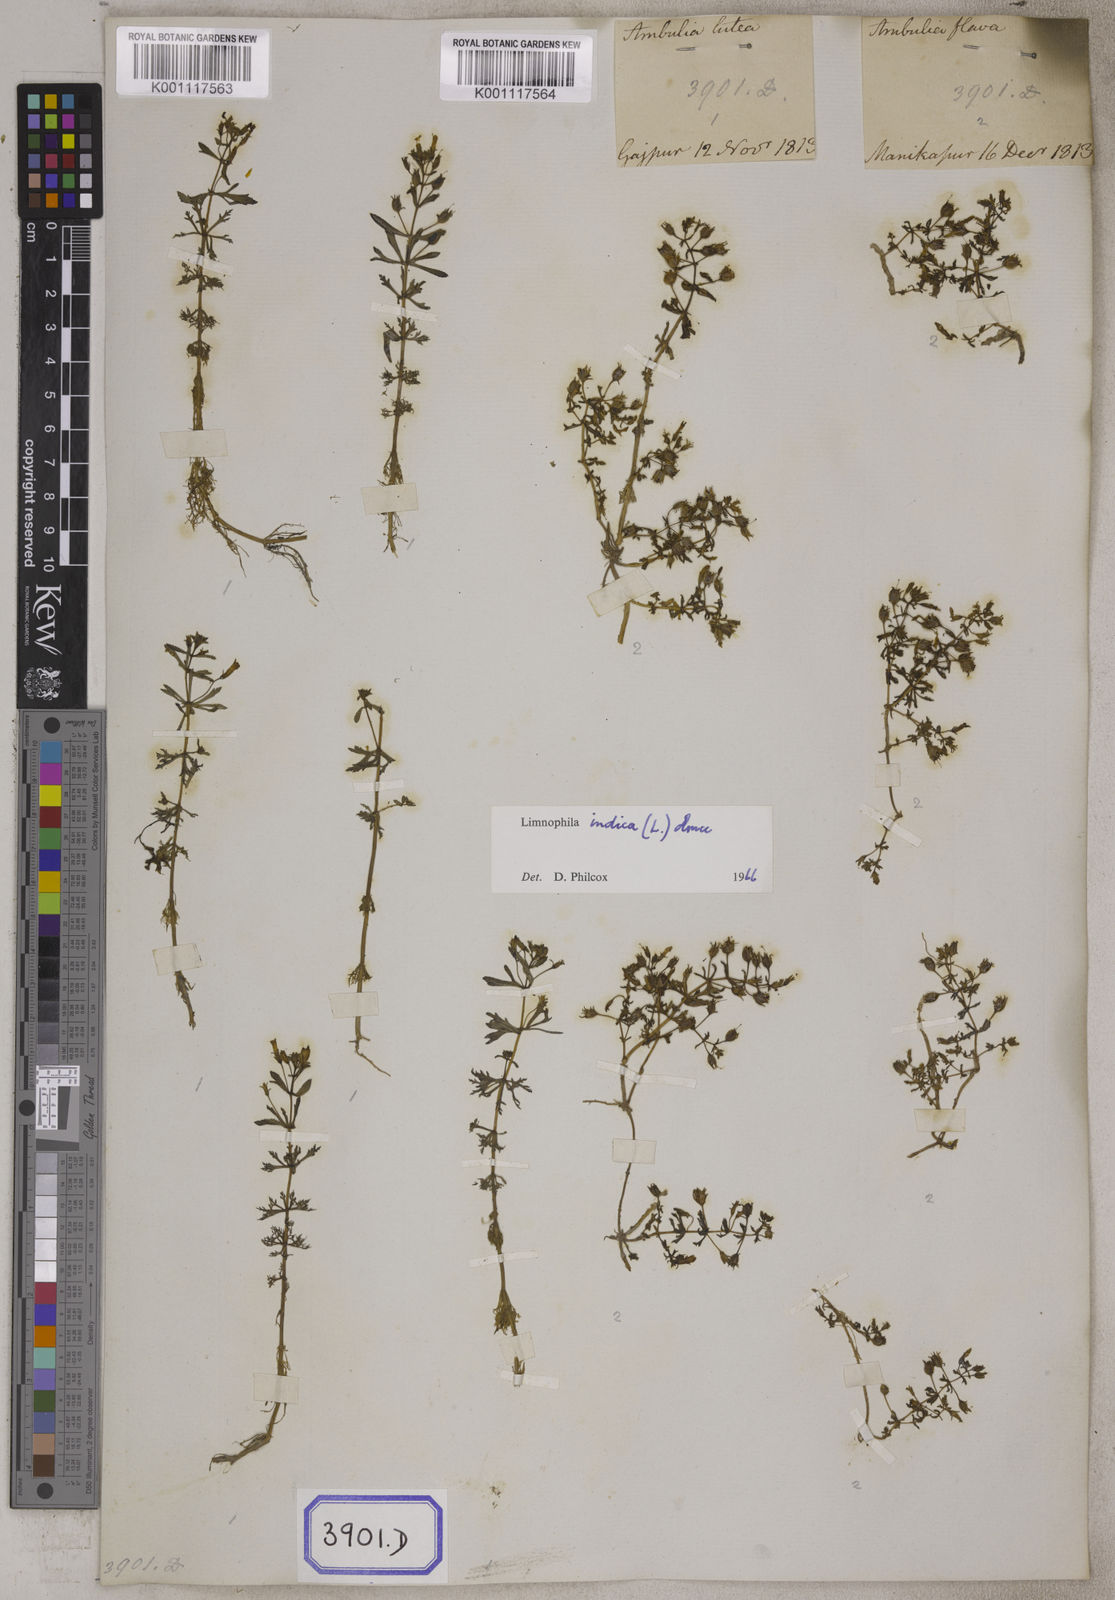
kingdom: Plantae
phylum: Tracheophyta
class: Magnoliopsida
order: Lamiales
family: Plantaginaceae
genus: Limnophila
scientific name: Limnophila indica
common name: Indian marshweed
